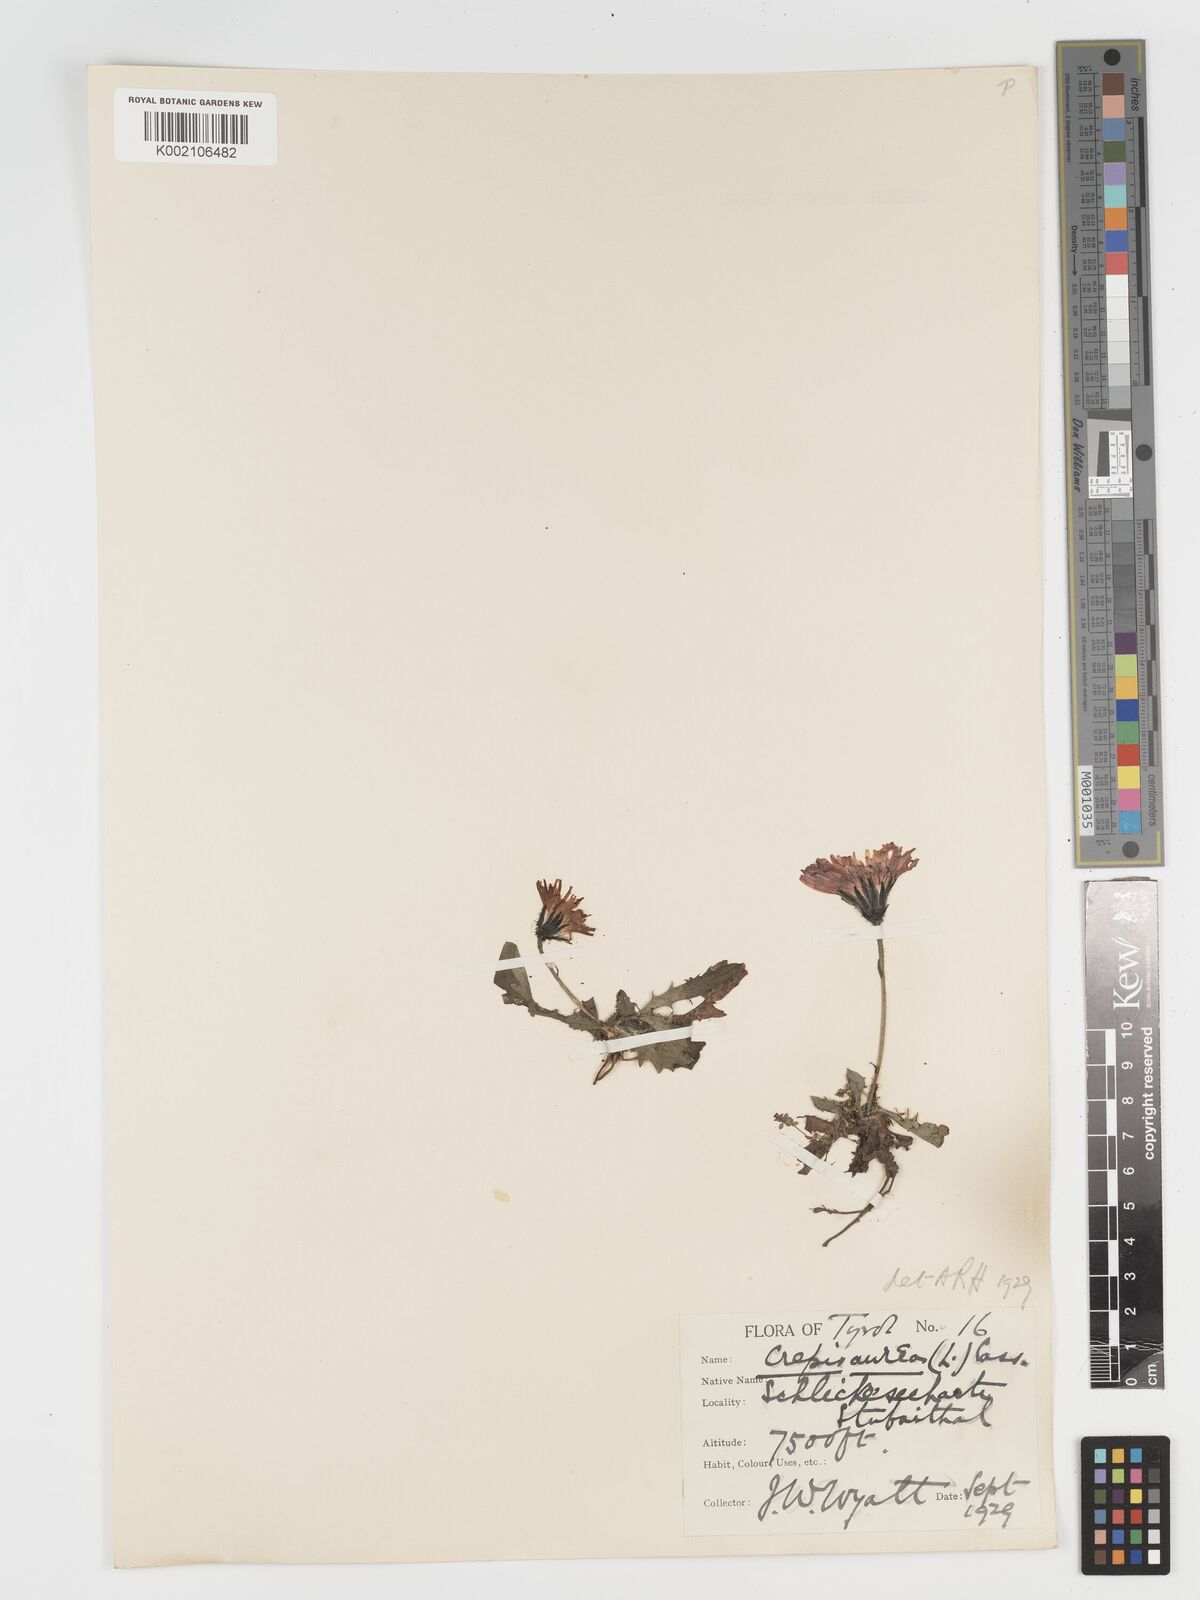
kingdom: Plantae
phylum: Tracheophyta
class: Magnoliopsida
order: Asterales
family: Asteraceae
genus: Crepis
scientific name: Crepis aurea
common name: Golden hawk's-beard
